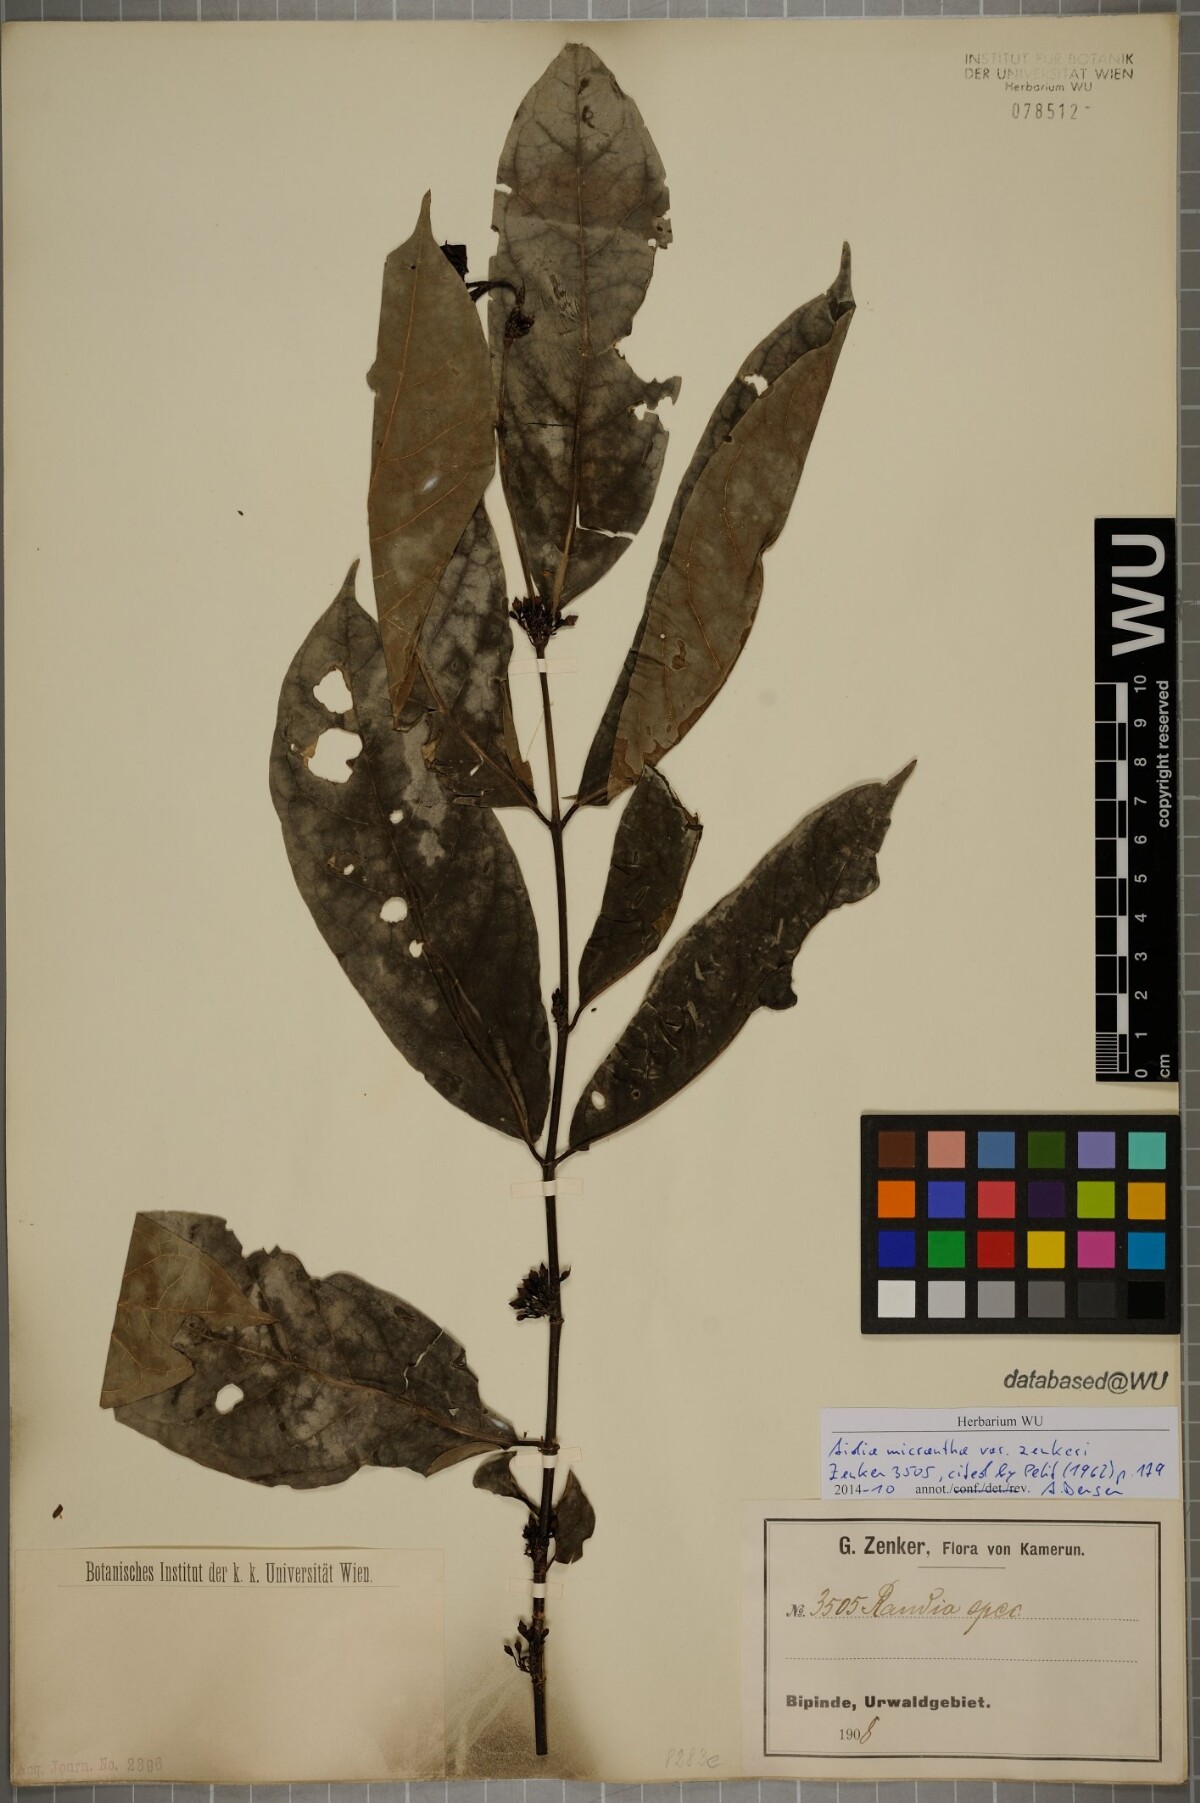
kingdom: Plantae
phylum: Tracheophyta
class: Magnoliopsida
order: Gentianales
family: Rubiaceae
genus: Aidia
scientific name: Aidia micrantha
